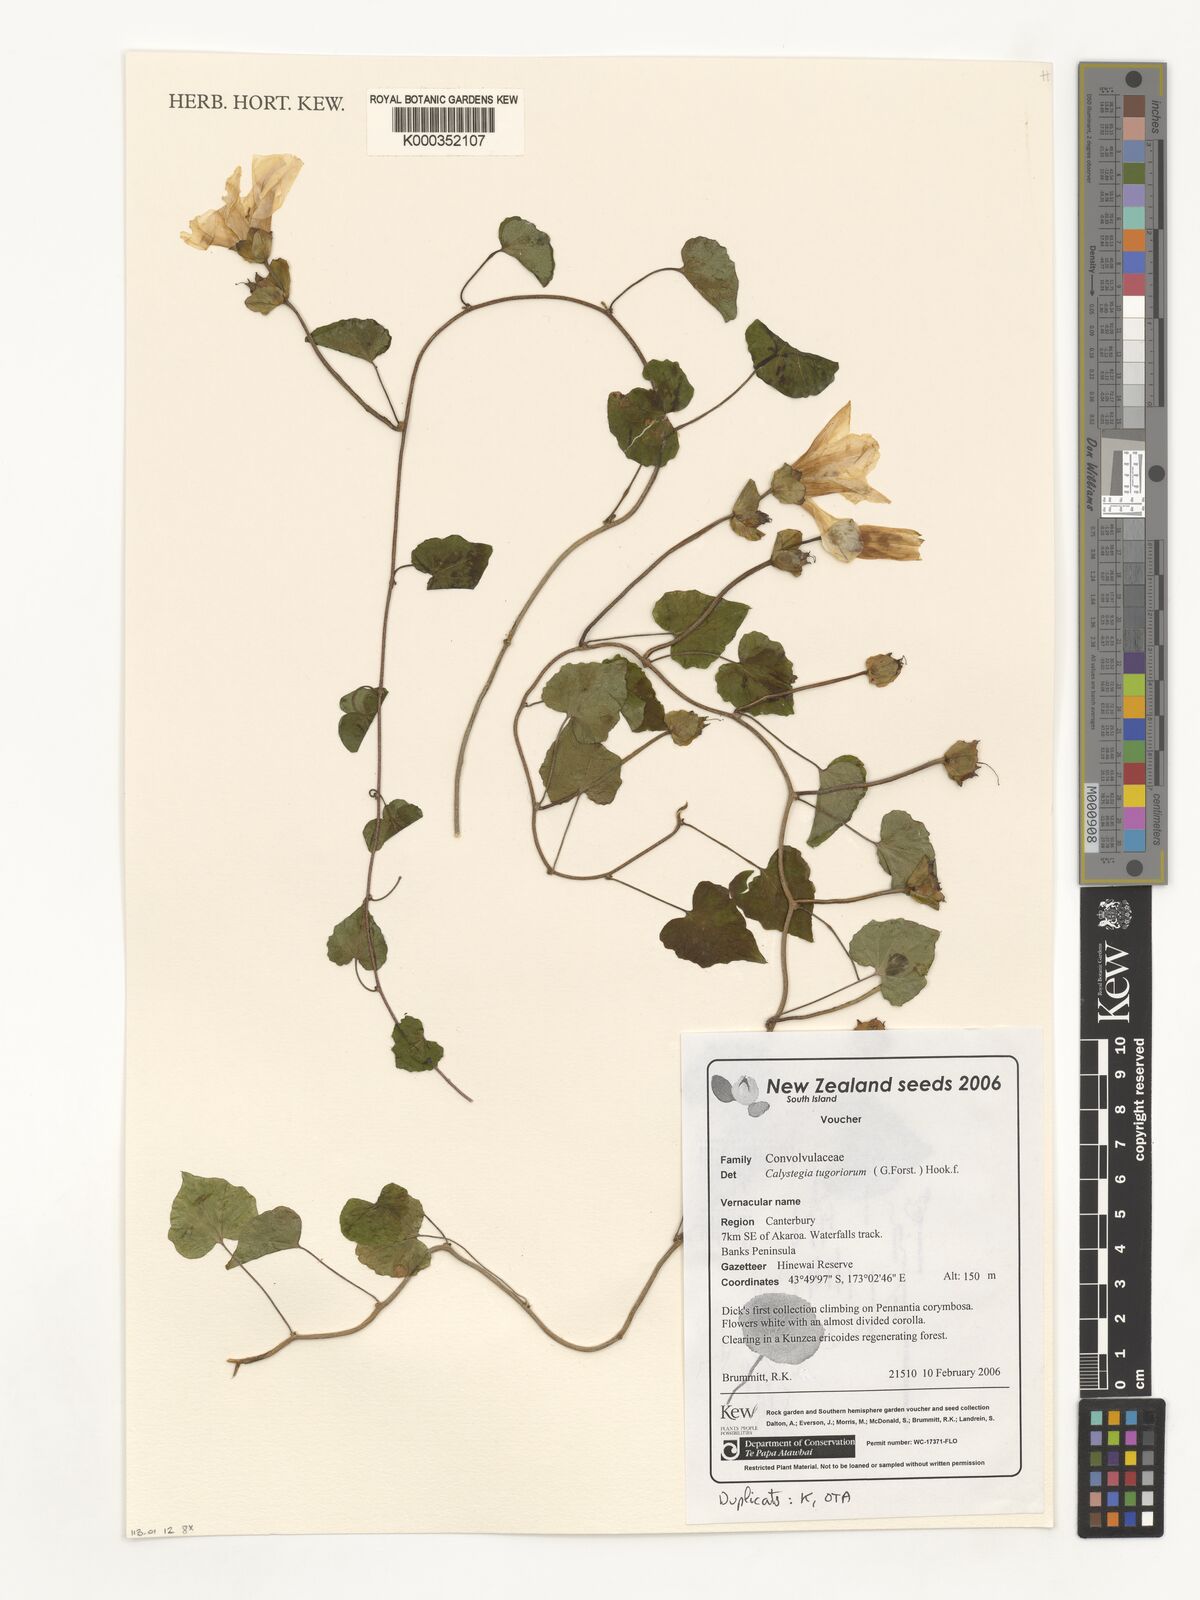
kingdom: Plantae
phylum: Tracheophyta
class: Magnoliopsida
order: Solanales
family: Convolvulaceae
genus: Calystegia
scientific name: Calystegia
